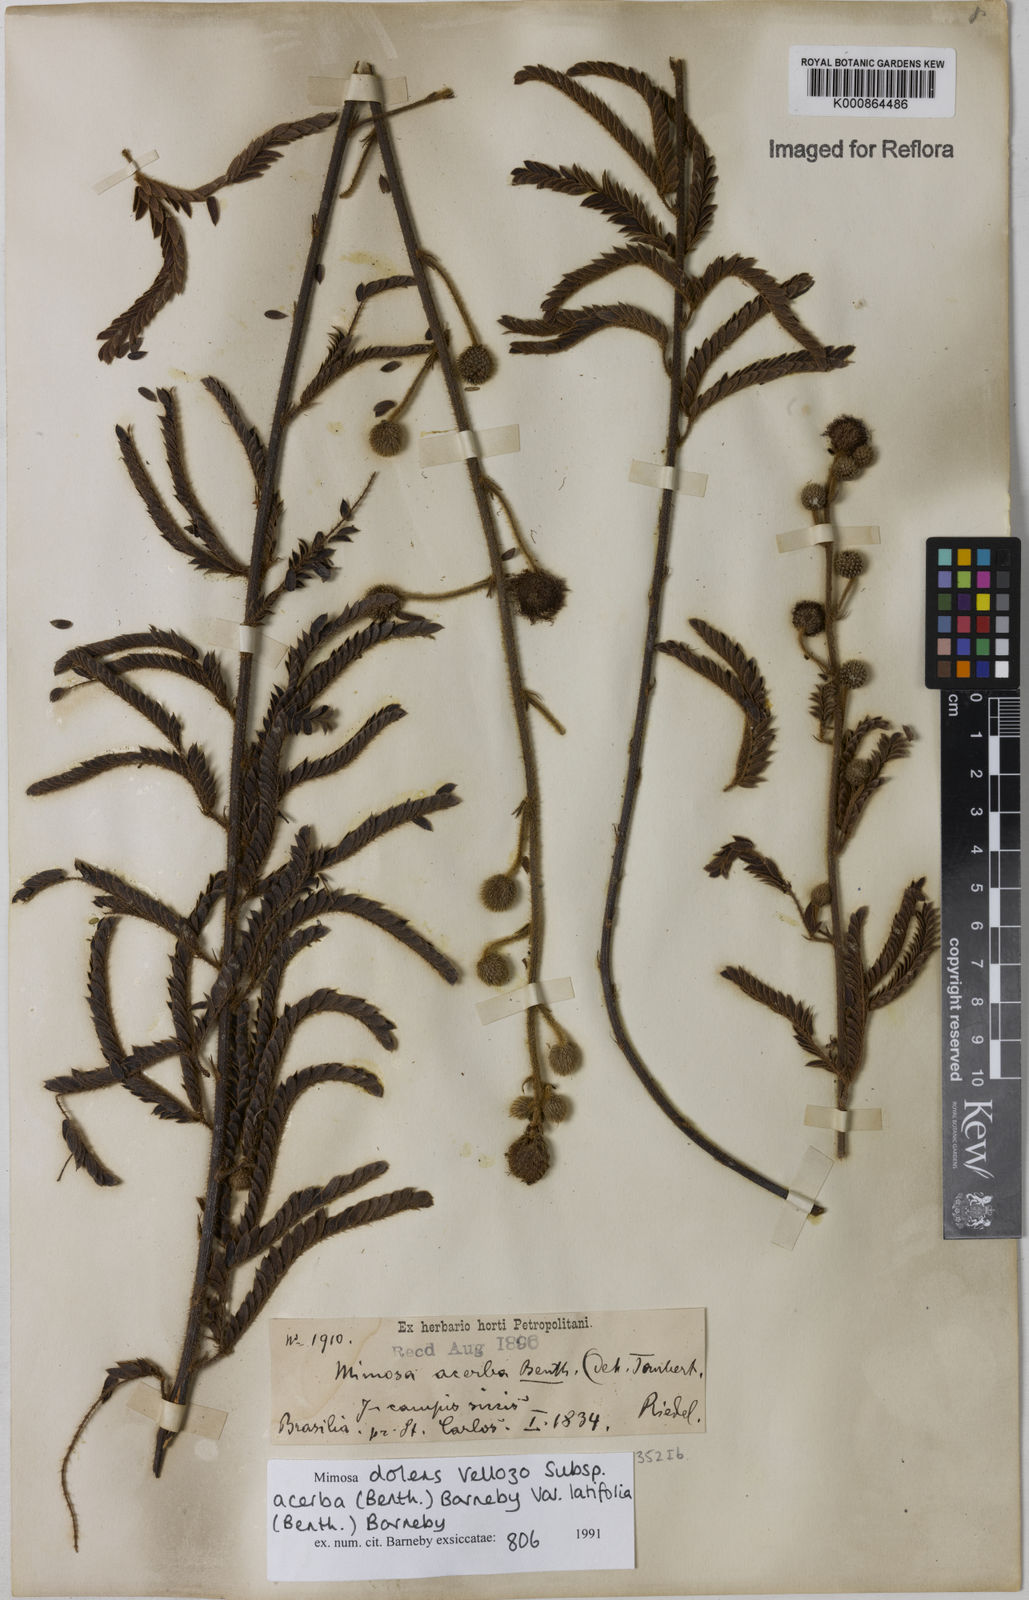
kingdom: Plantae
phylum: Tracheophyta
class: Magnoliopsida
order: Fabales
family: Fabaceae
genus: Mimosa
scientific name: Mimosa dolens
